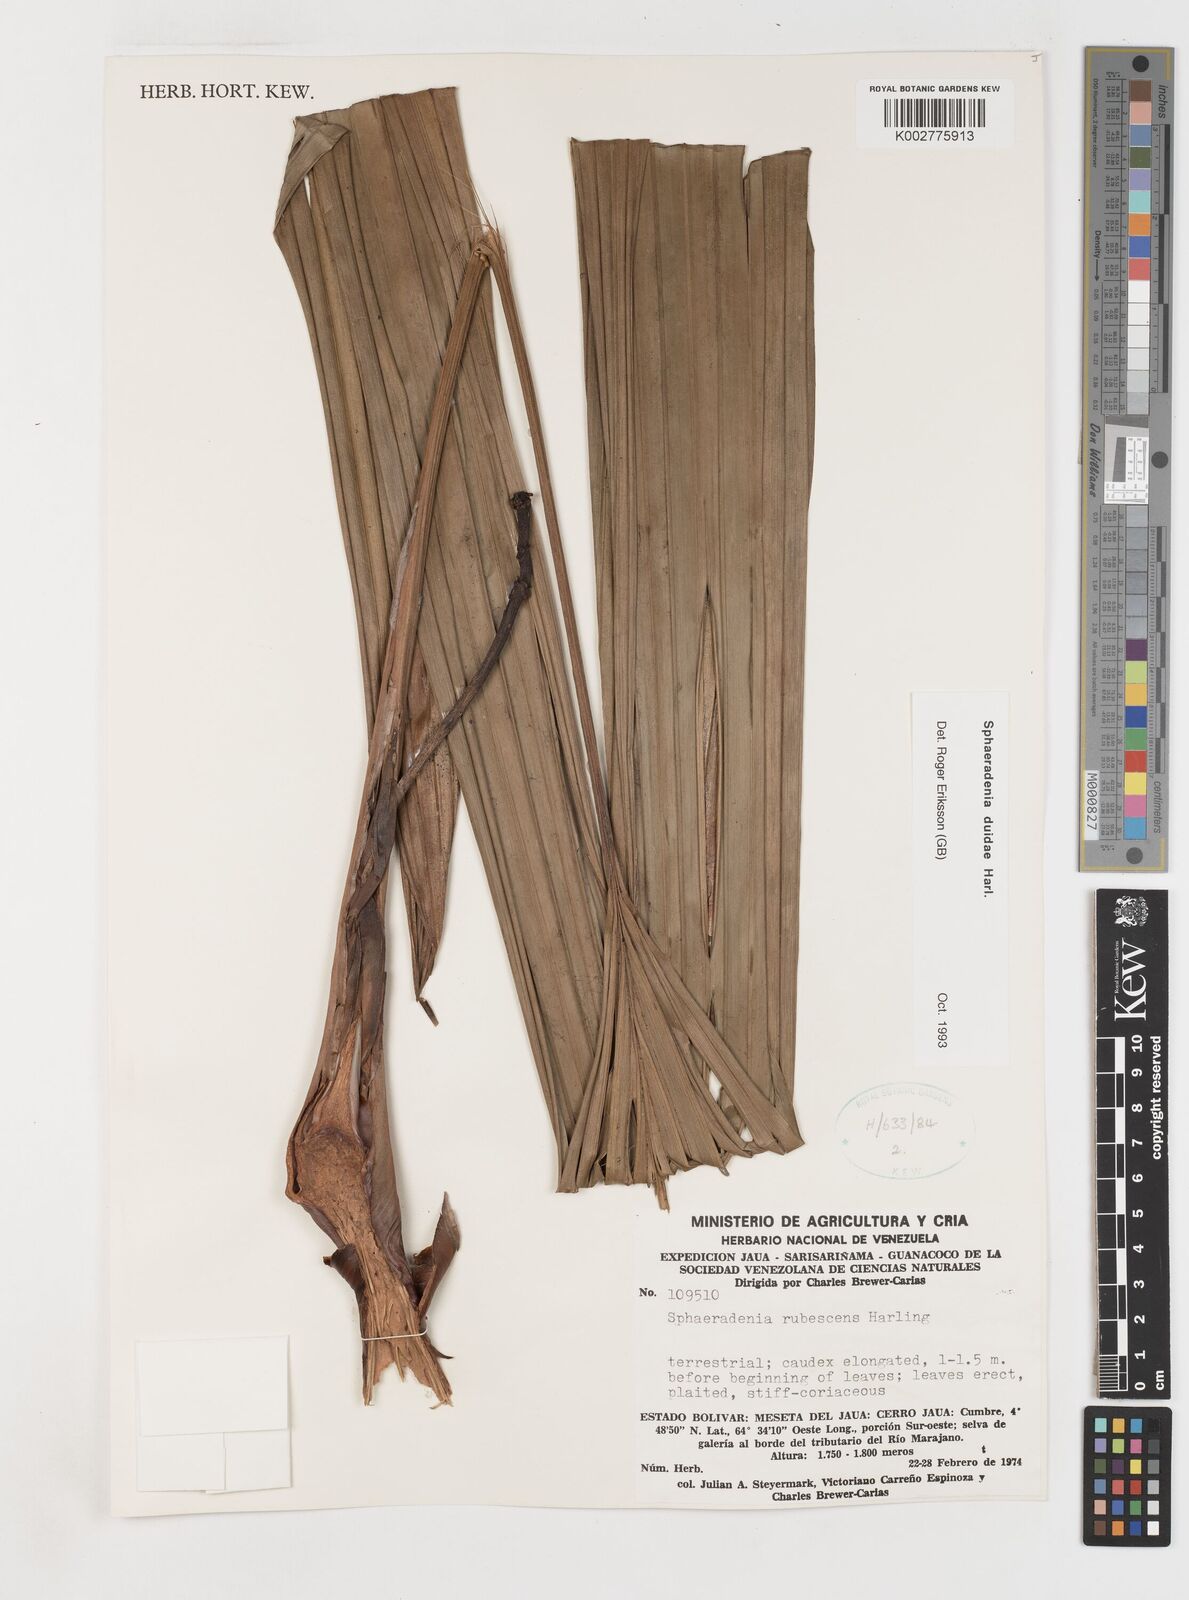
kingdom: Plantae
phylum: Tracheophyta
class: Liliopsida
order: Pandanales
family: Cyclanthaceae
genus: Sphaeradenia
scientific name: Sphaeradenia duidae
